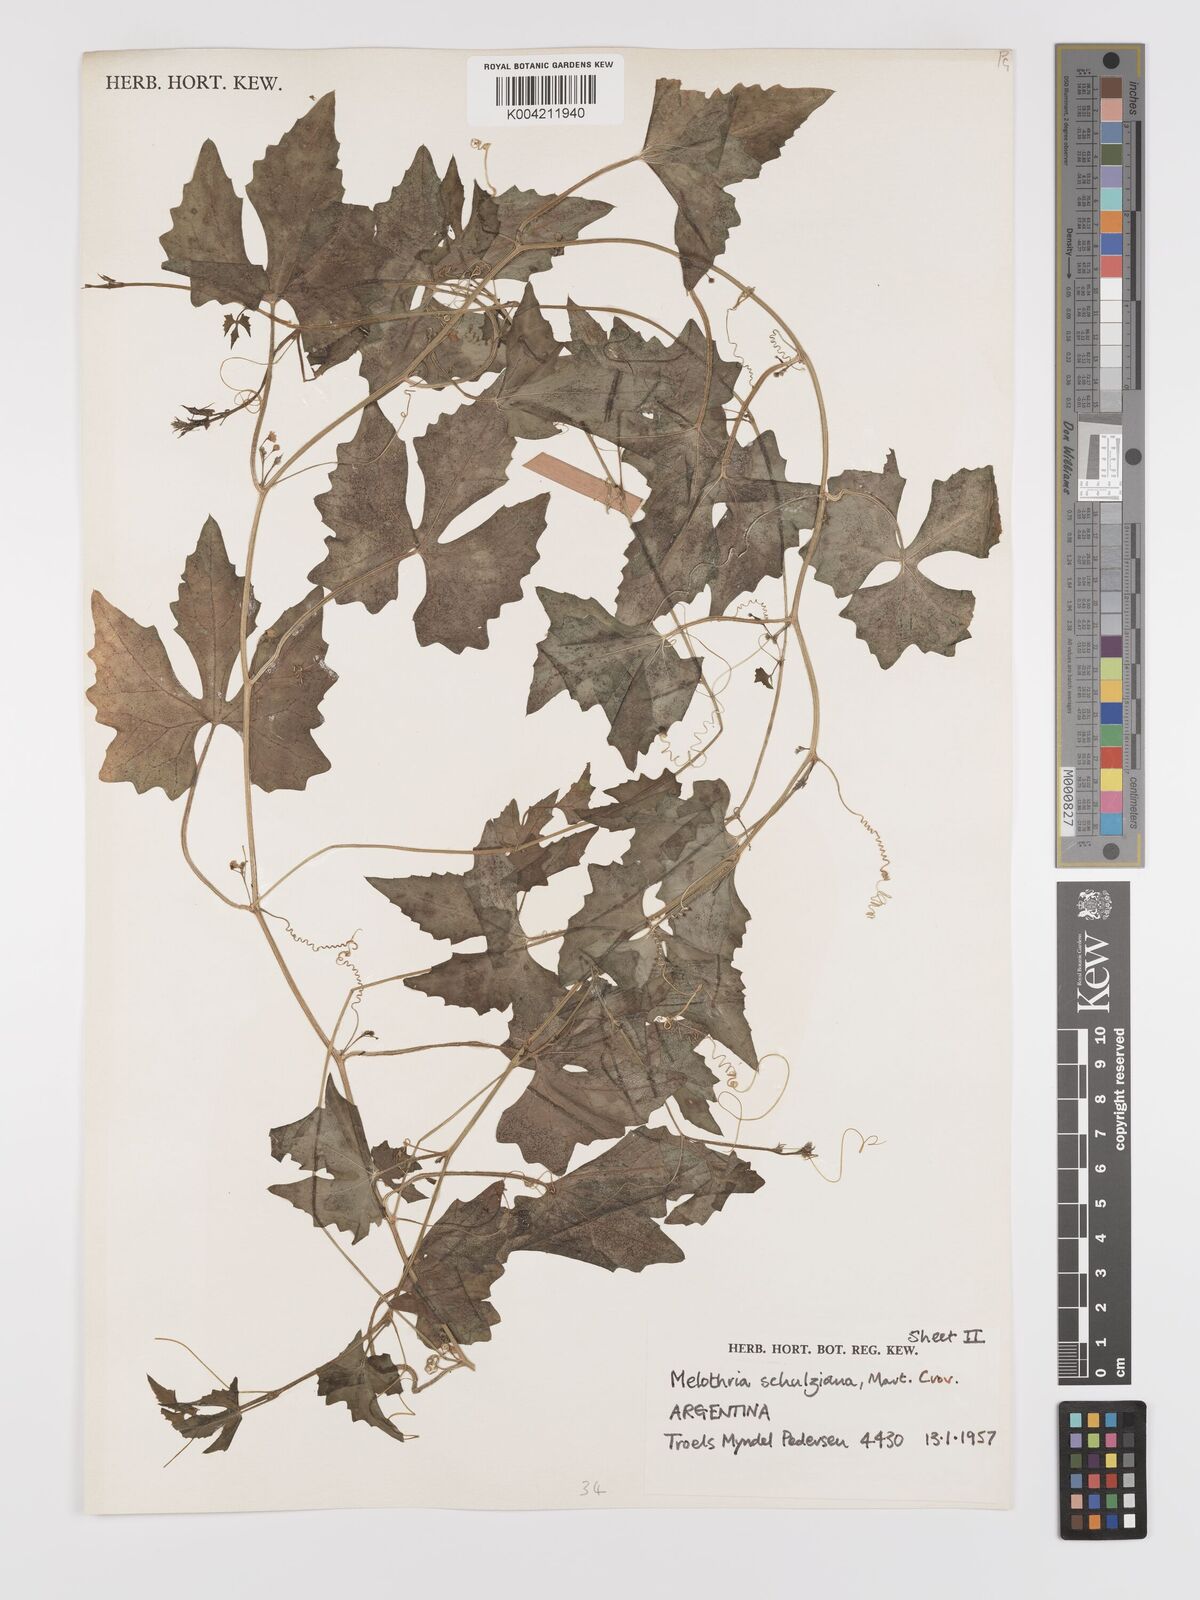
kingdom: Plantae
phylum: Tracheophyta
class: Magnoliopsida
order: Cucurbitales
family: Cucurbitaceae
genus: Melothria
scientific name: Melothria schulziana
